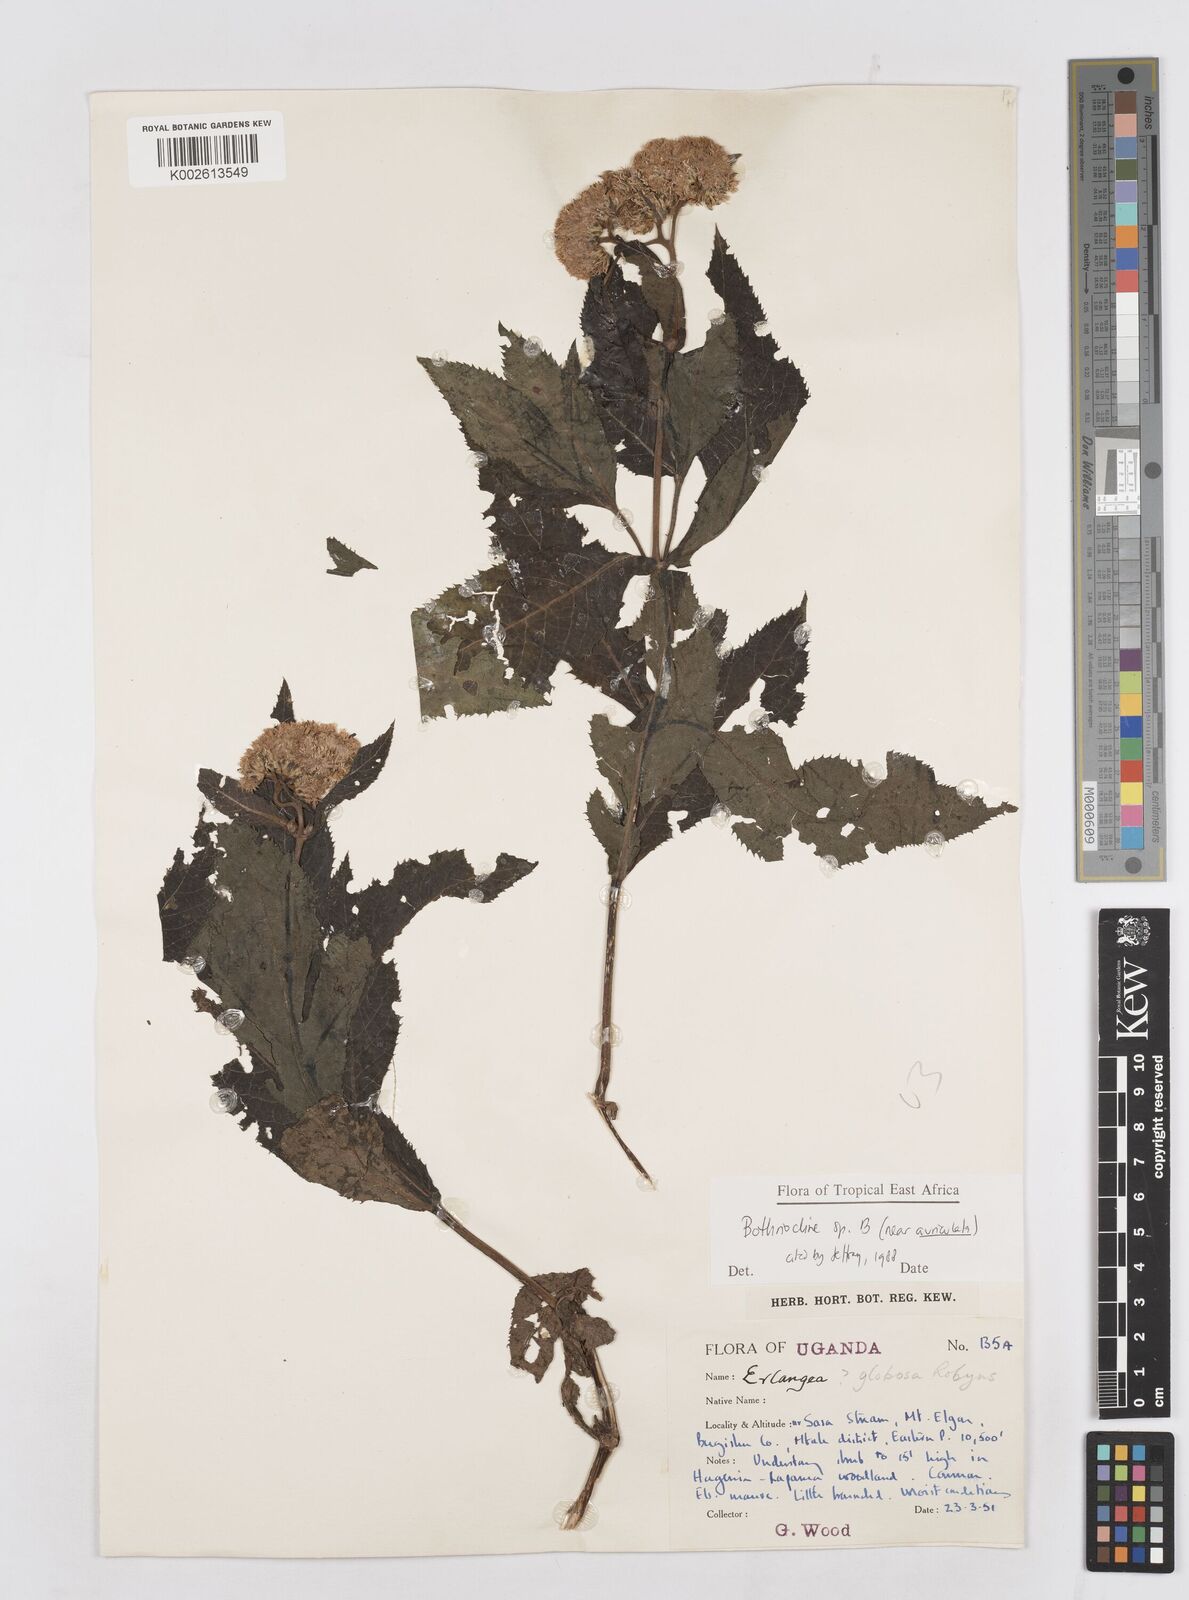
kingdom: Plantae
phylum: Tracheophyta
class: Magnoliopsida
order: Asterales
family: Asteraceae
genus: Bothriocline
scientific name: Bothriocline
